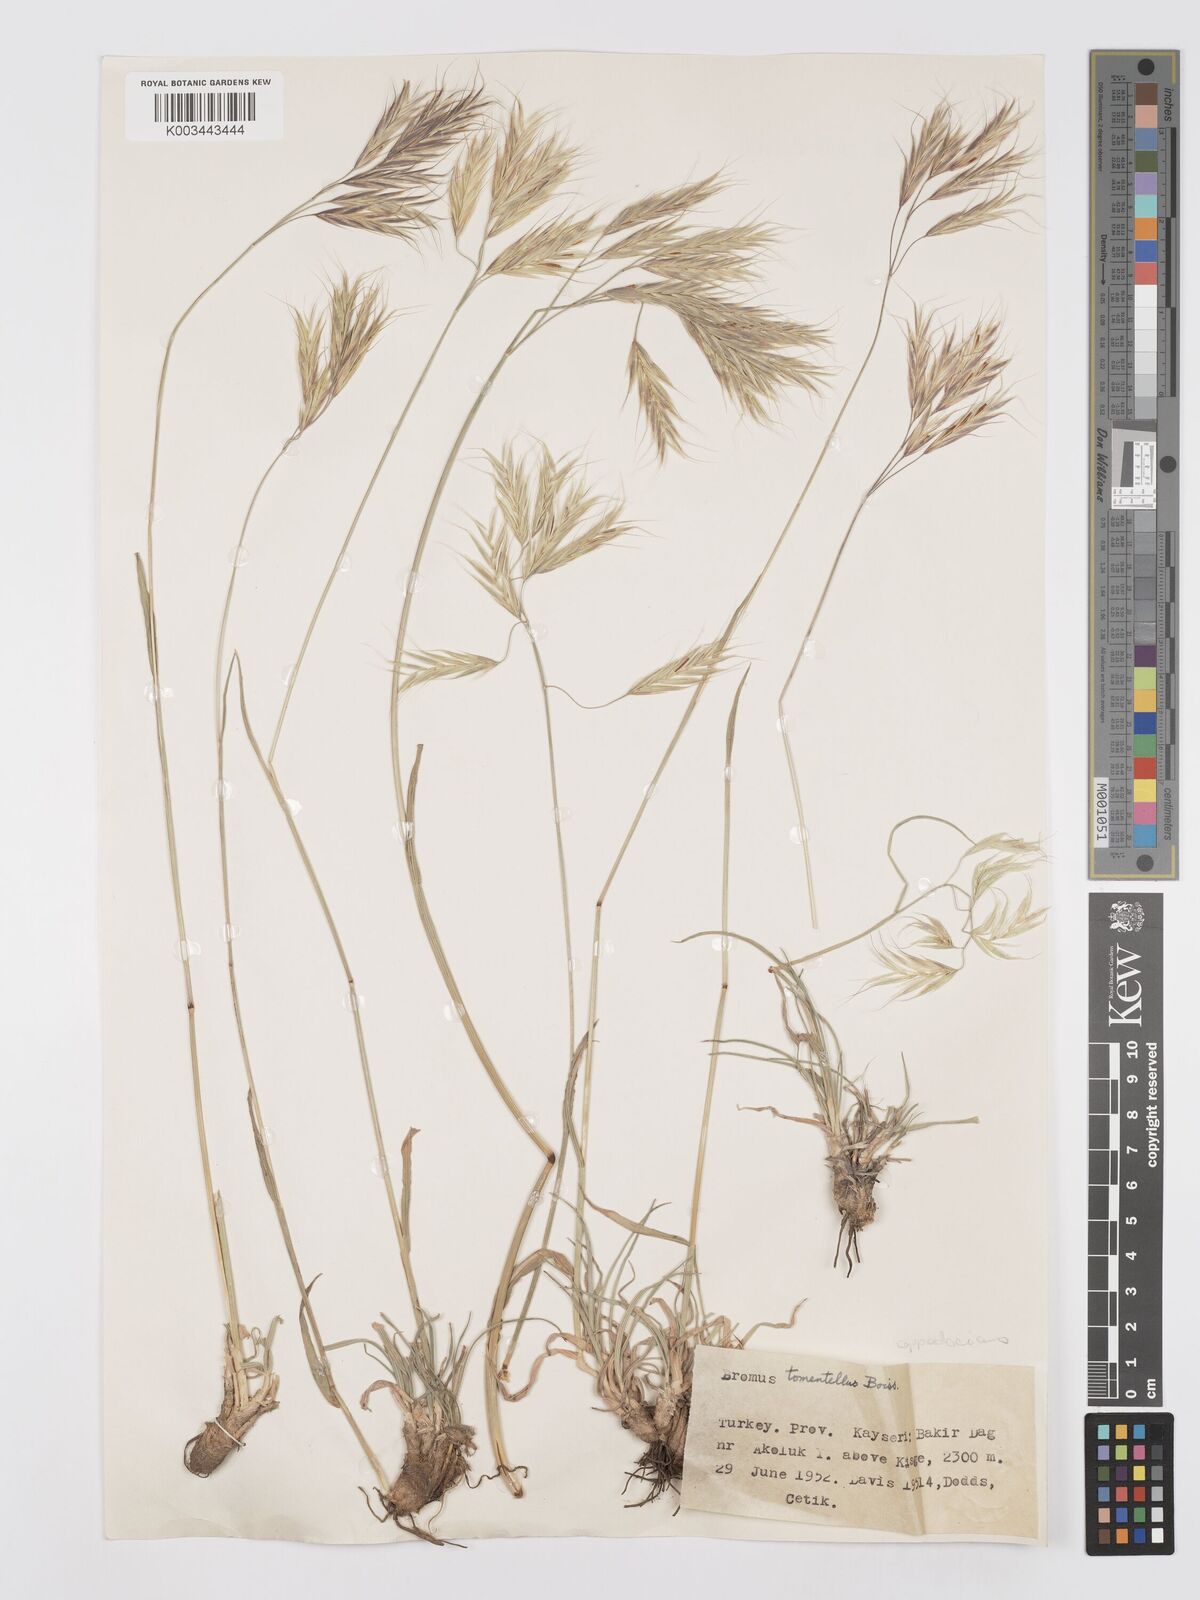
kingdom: Plantae
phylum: Tracheophyta
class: Liliopsida
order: Poales
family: Poaceae
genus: Bromus
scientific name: Bromus tomentellus
